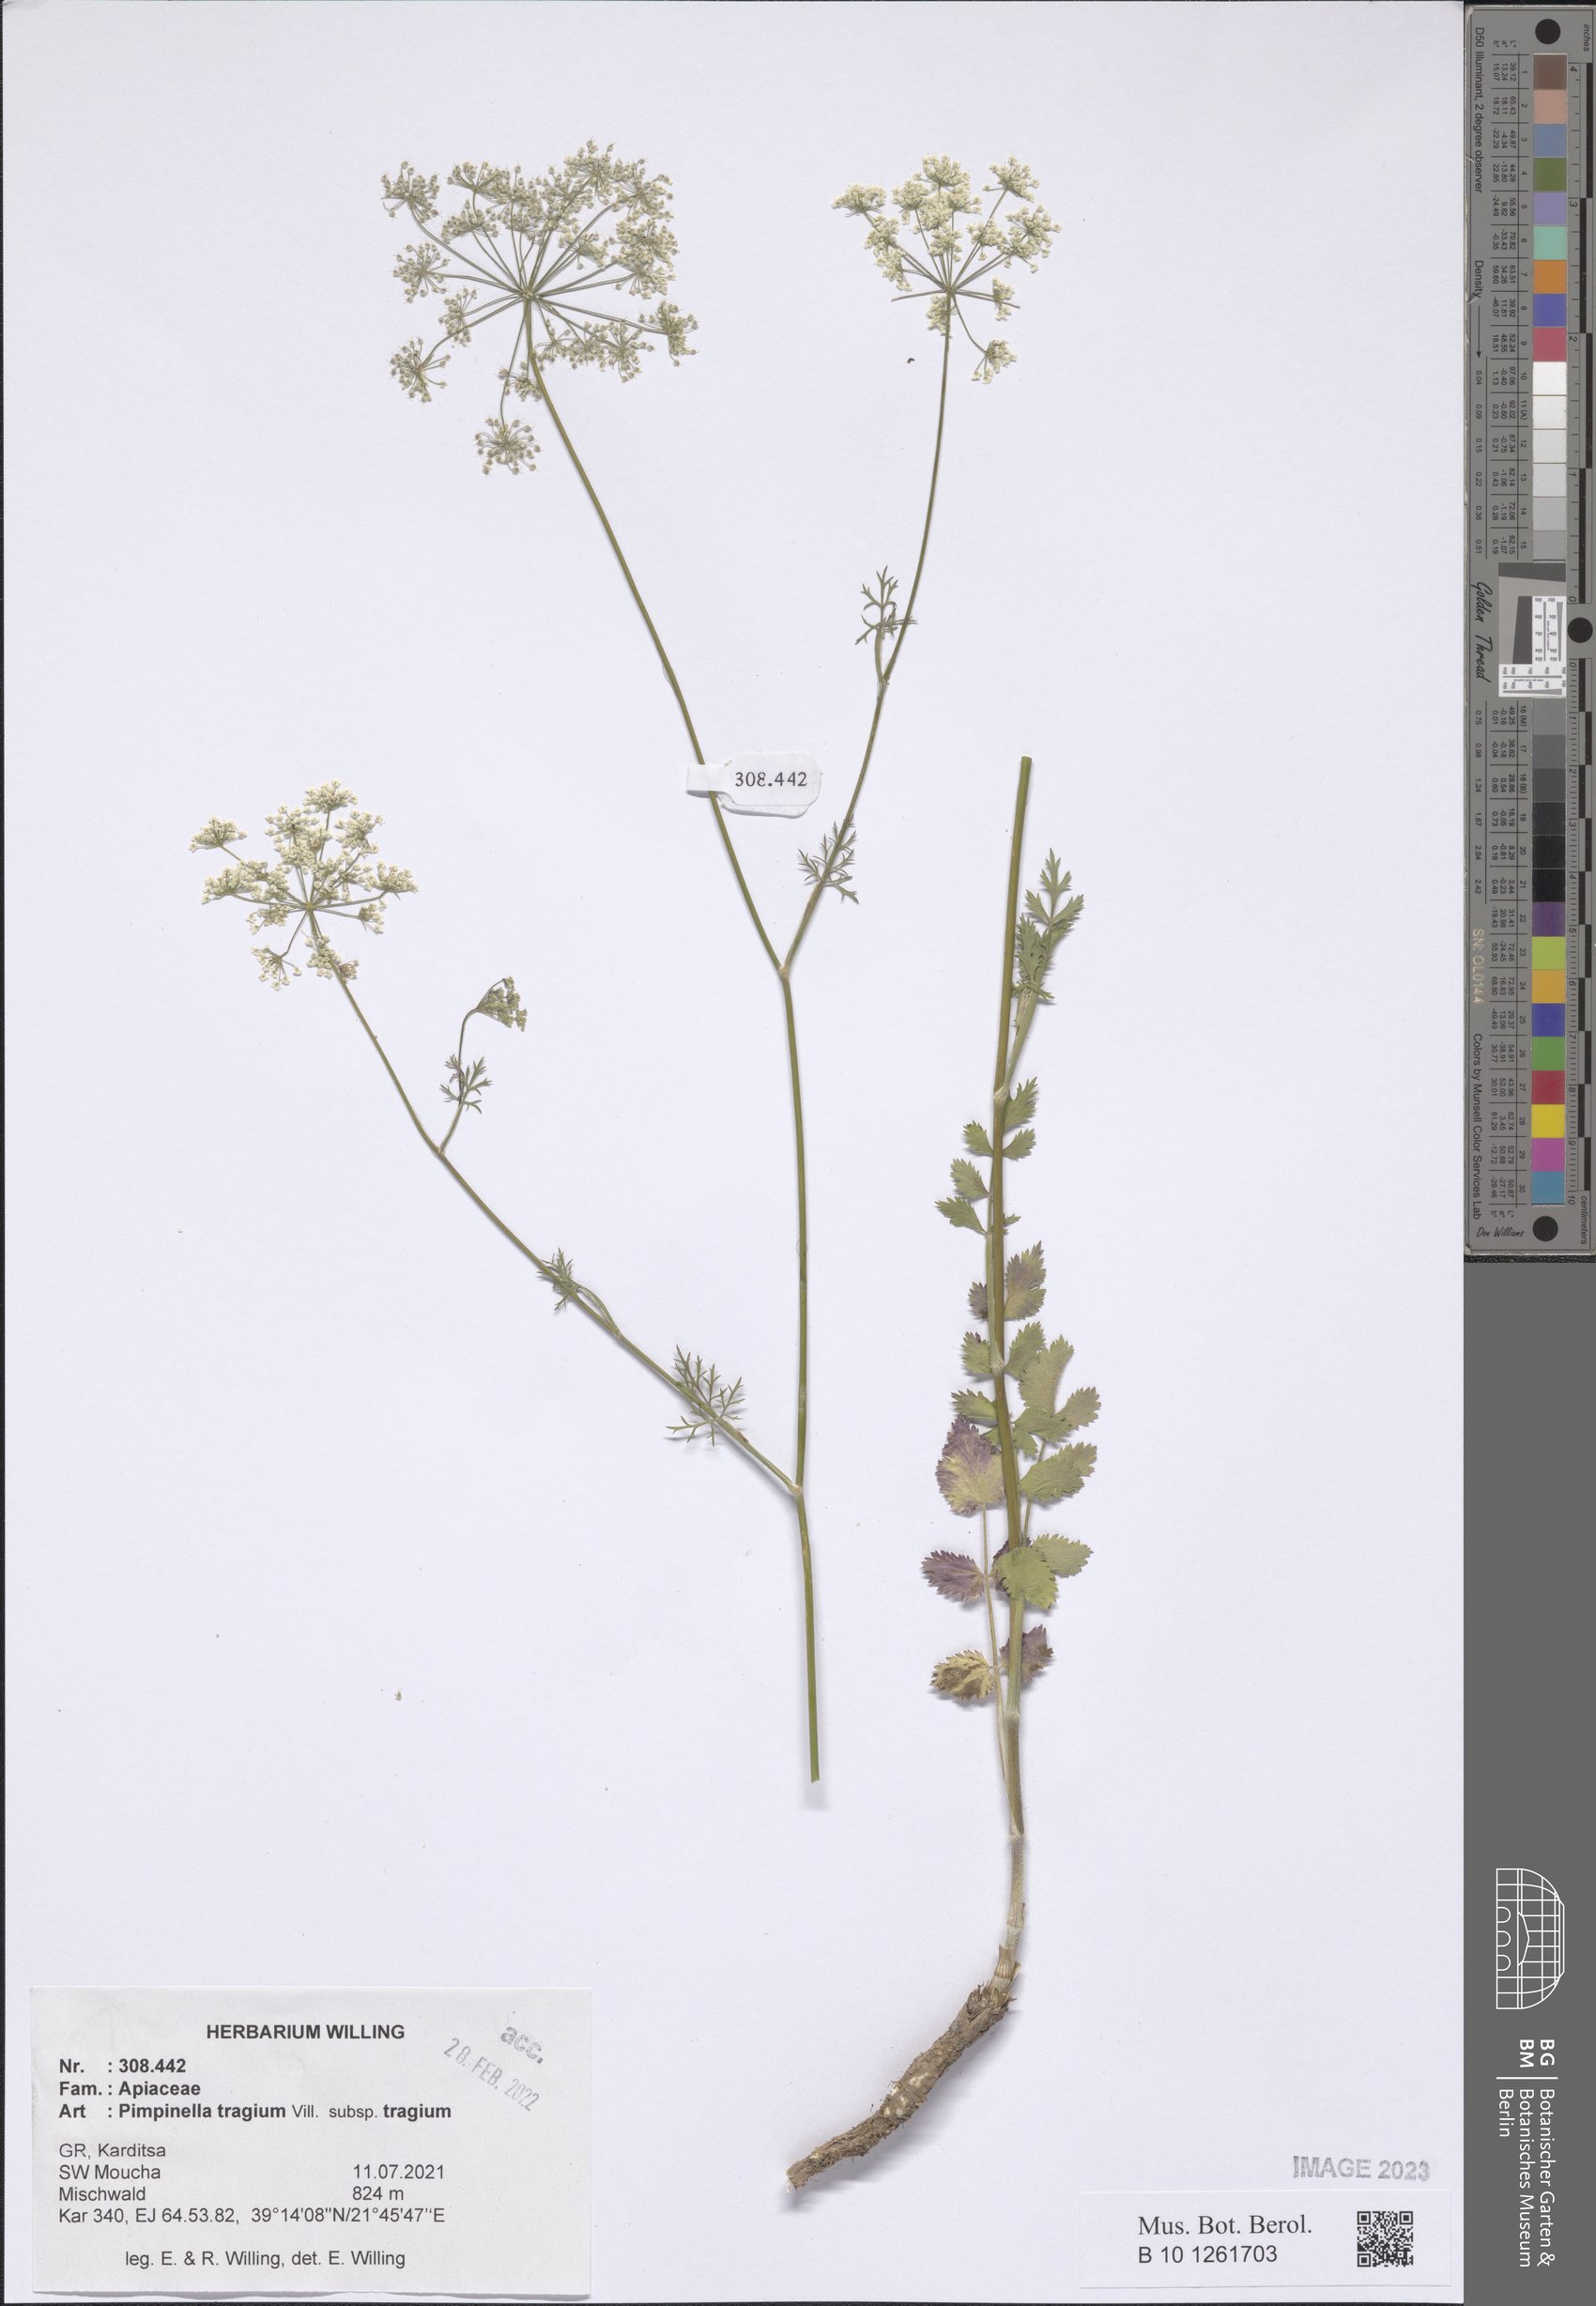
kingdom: Plantae
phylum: Tracheophyta
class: Magnoliopsida
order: Apiales
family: Apiaceae
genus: Pimpinella
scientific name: Pimpinella tragium
